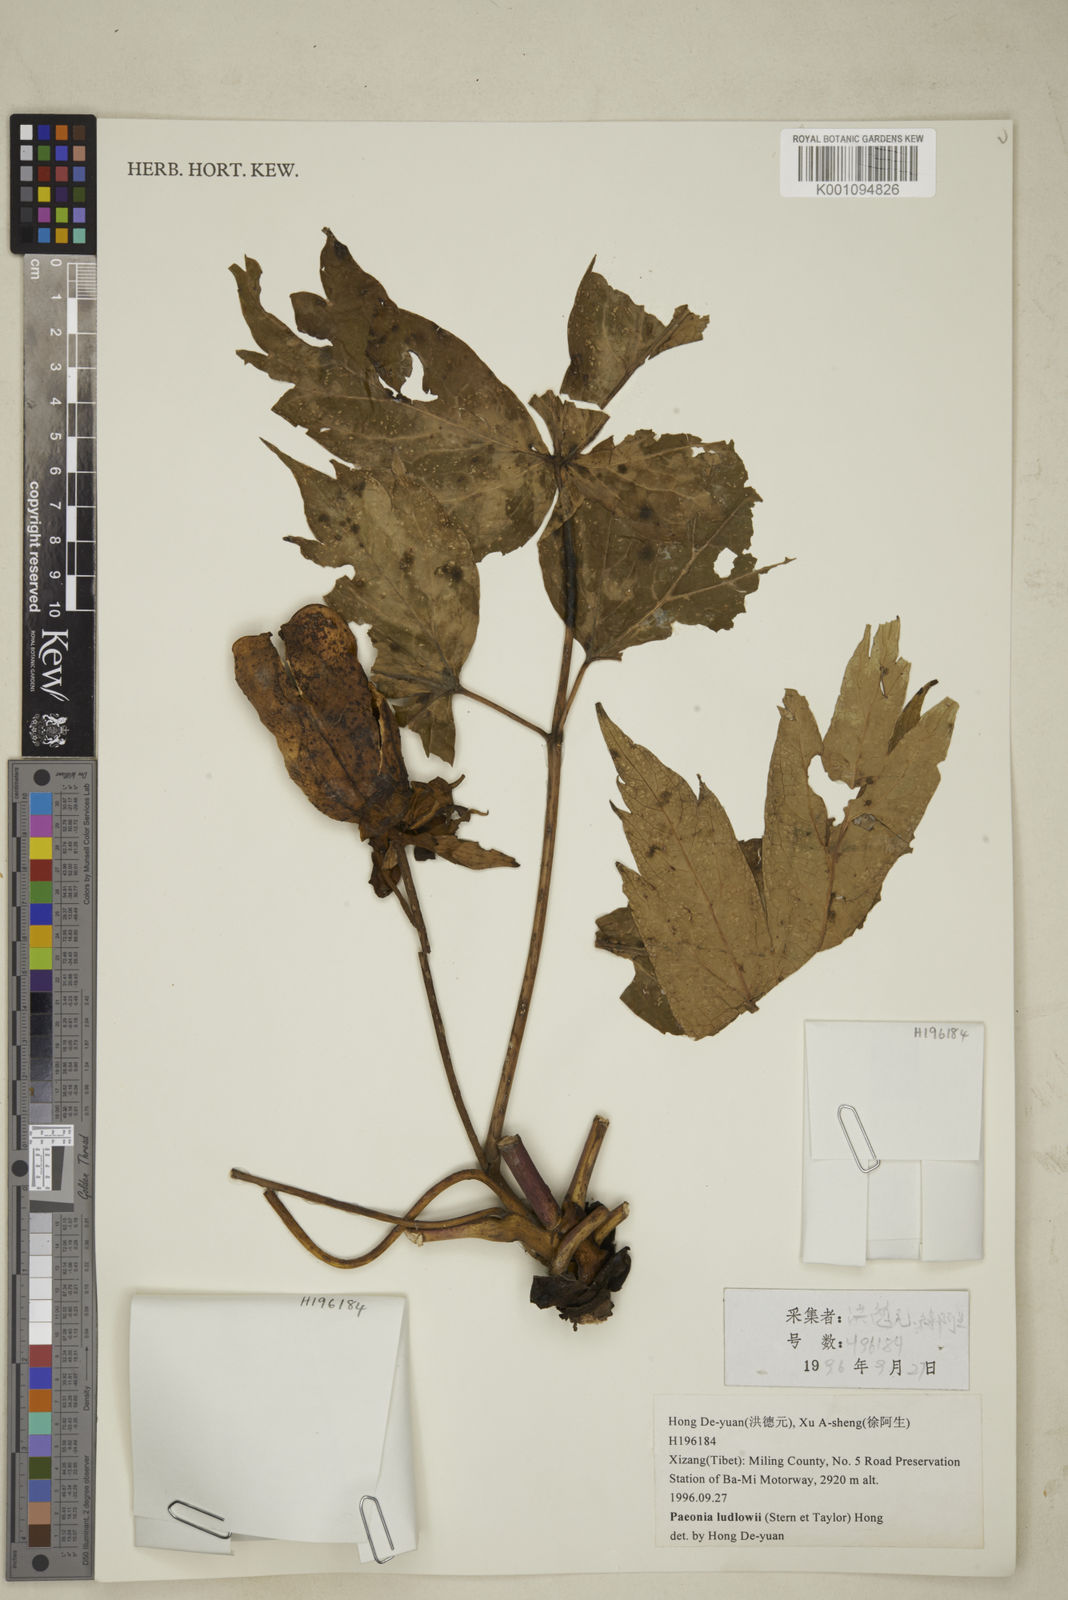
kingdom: Plantae
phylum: Tracheophyta
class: Magnoliopsida
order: Saxifragales
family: Paeoniaceae
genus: Paeonia
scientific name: Paeonia delavayi
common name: Dian mu dan
